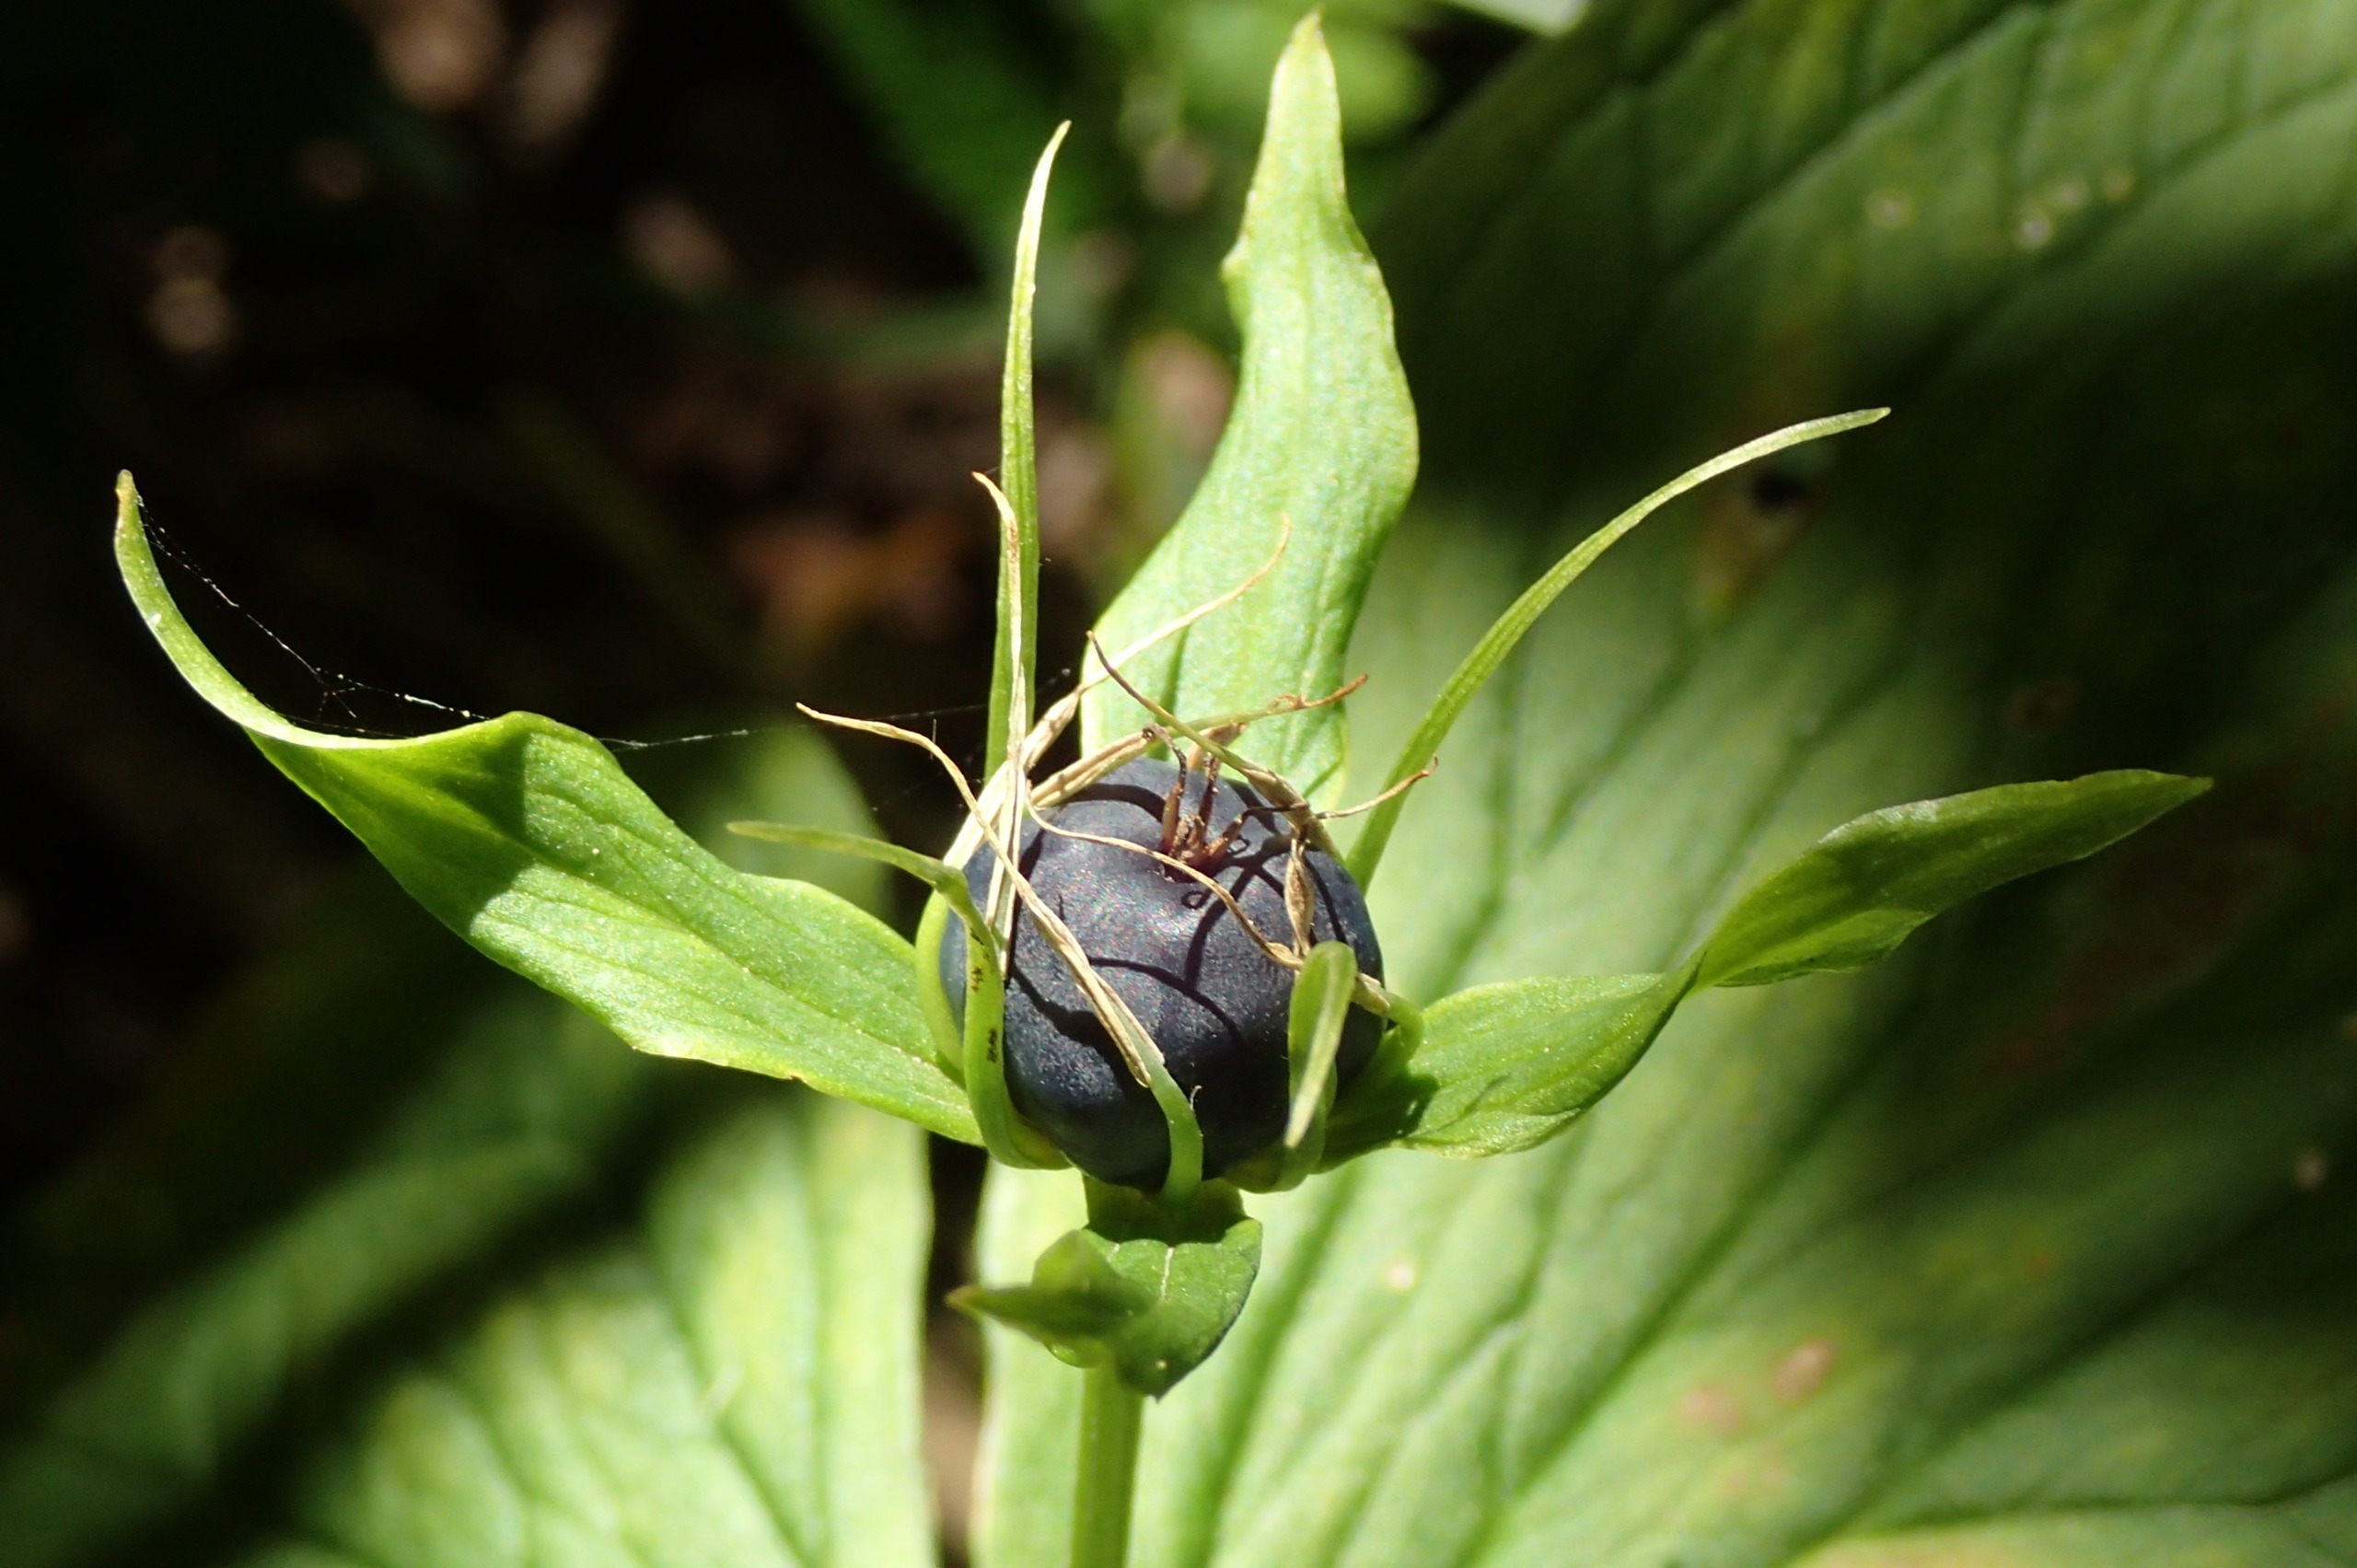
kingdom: Plantae
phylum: Tracheophyta
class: Liliopsida
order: Liliales
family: Melanthiaceae
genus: Paris
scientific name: Paris quadrifolia
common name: Firblad
